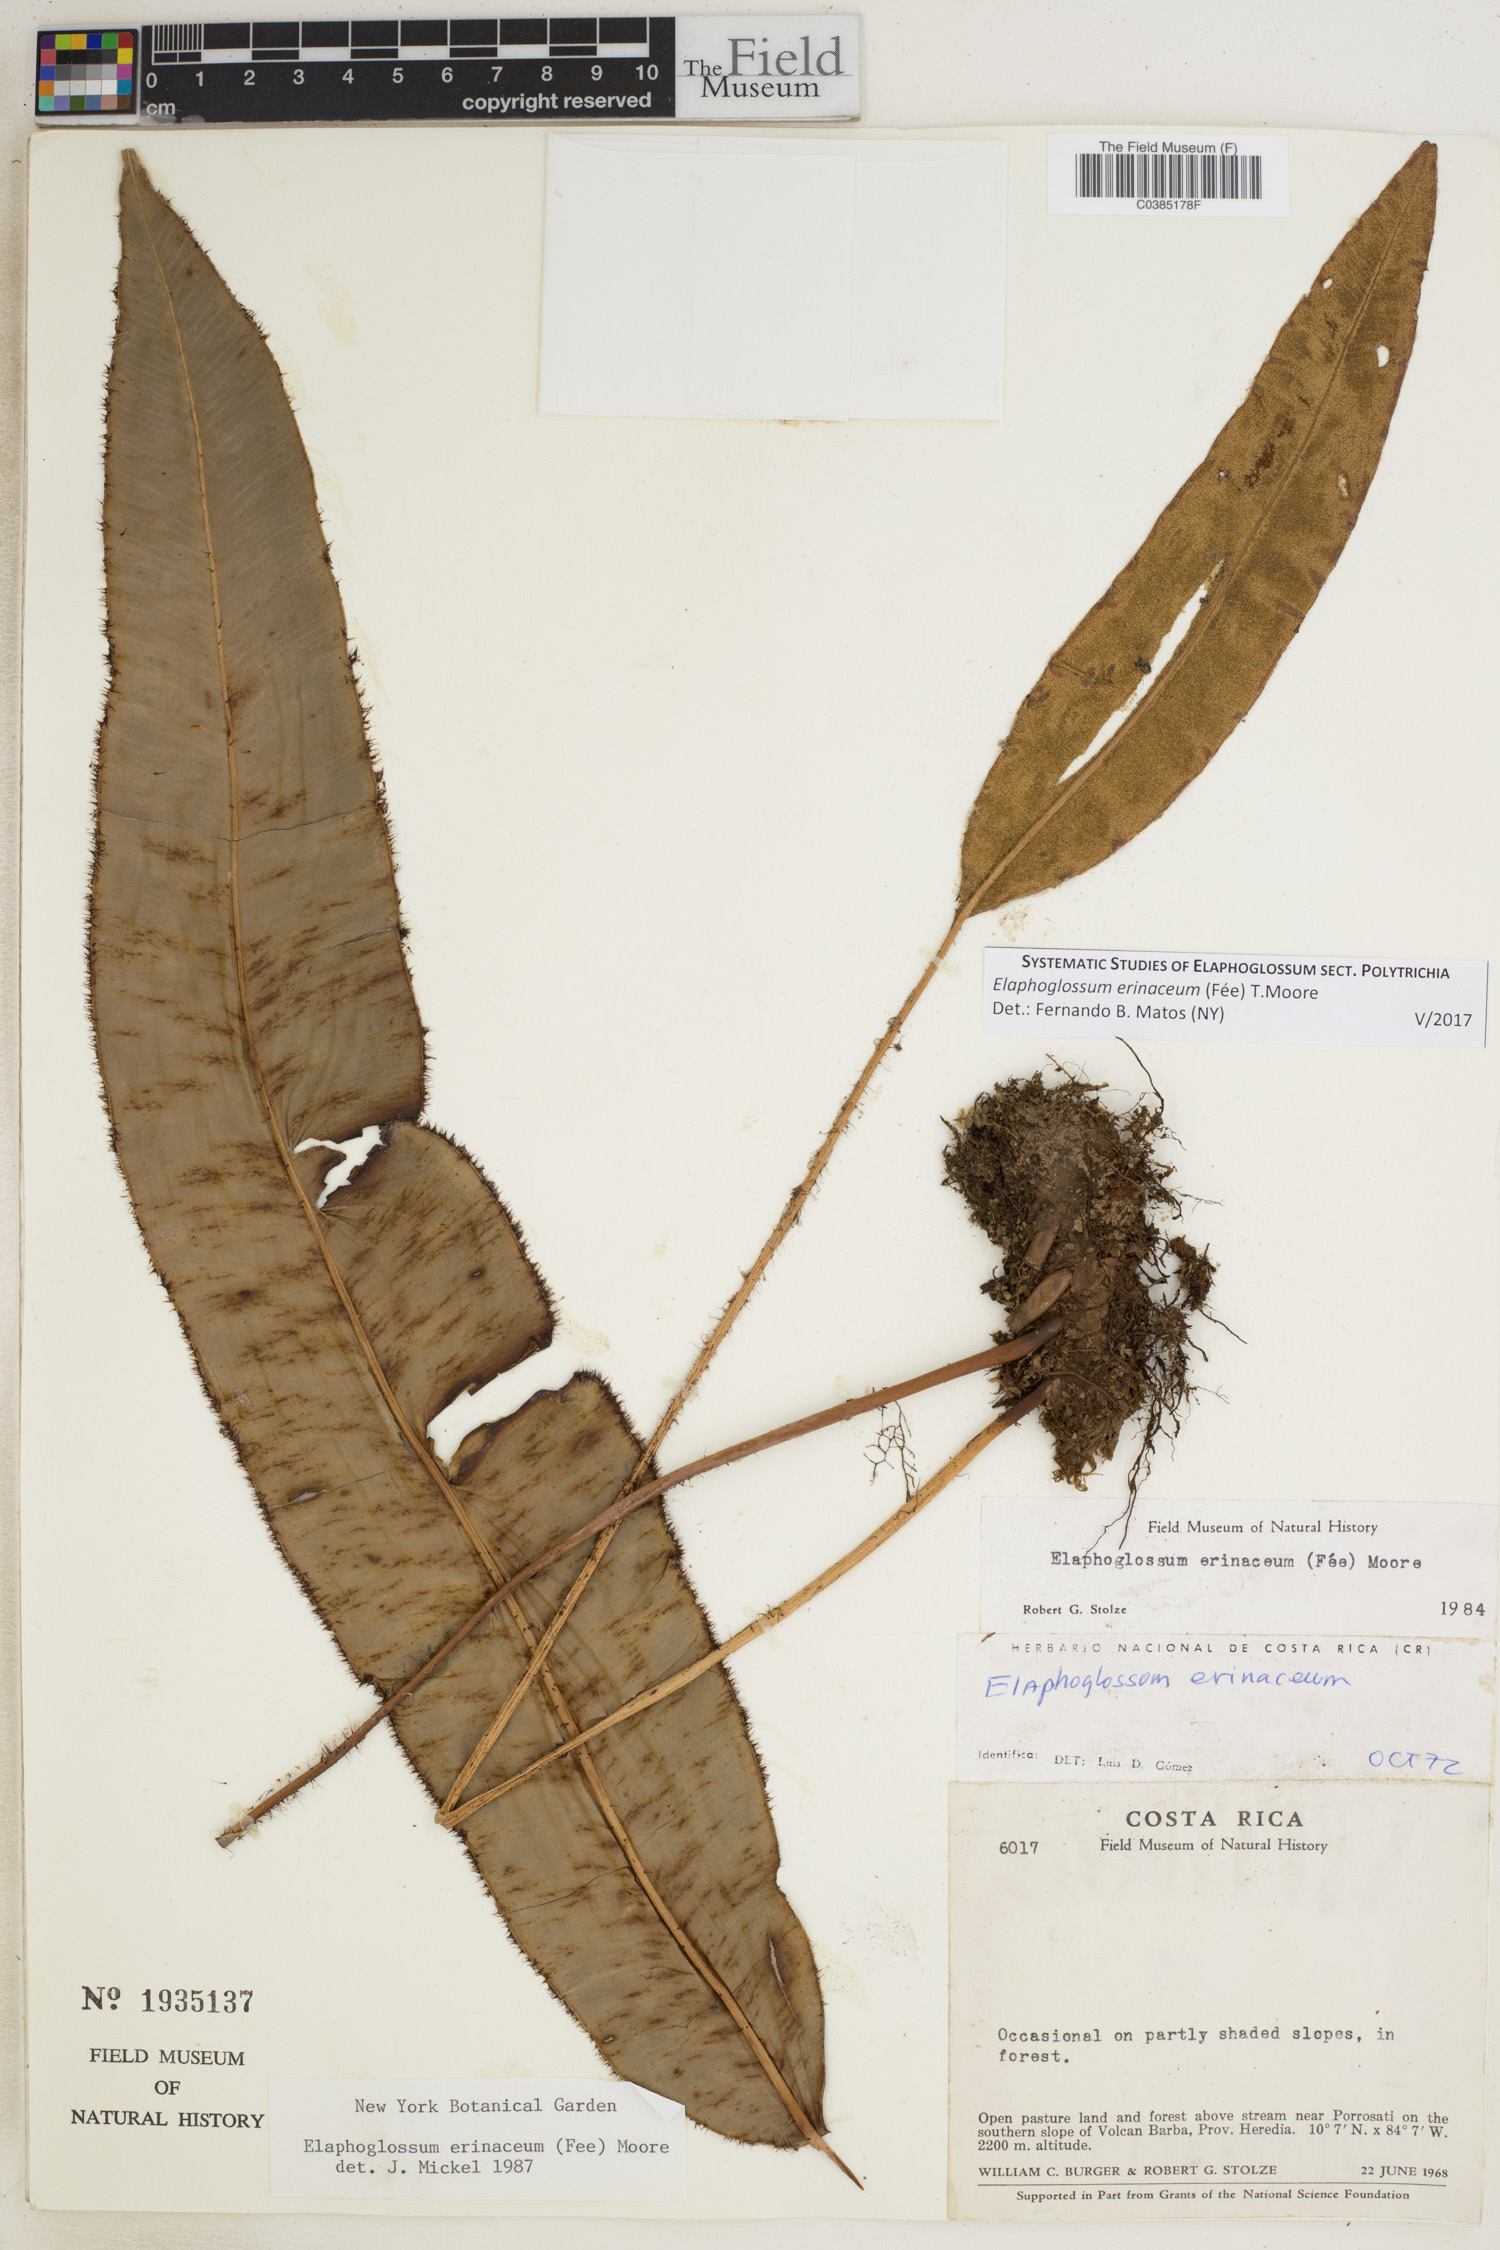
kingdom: Plantae
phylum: Tracheophyta
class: Polypodiopsida
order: Polypodiales
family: Dryopteridaceae
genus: Elaphoglossum
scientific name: Elaphoglossum erinaceum
